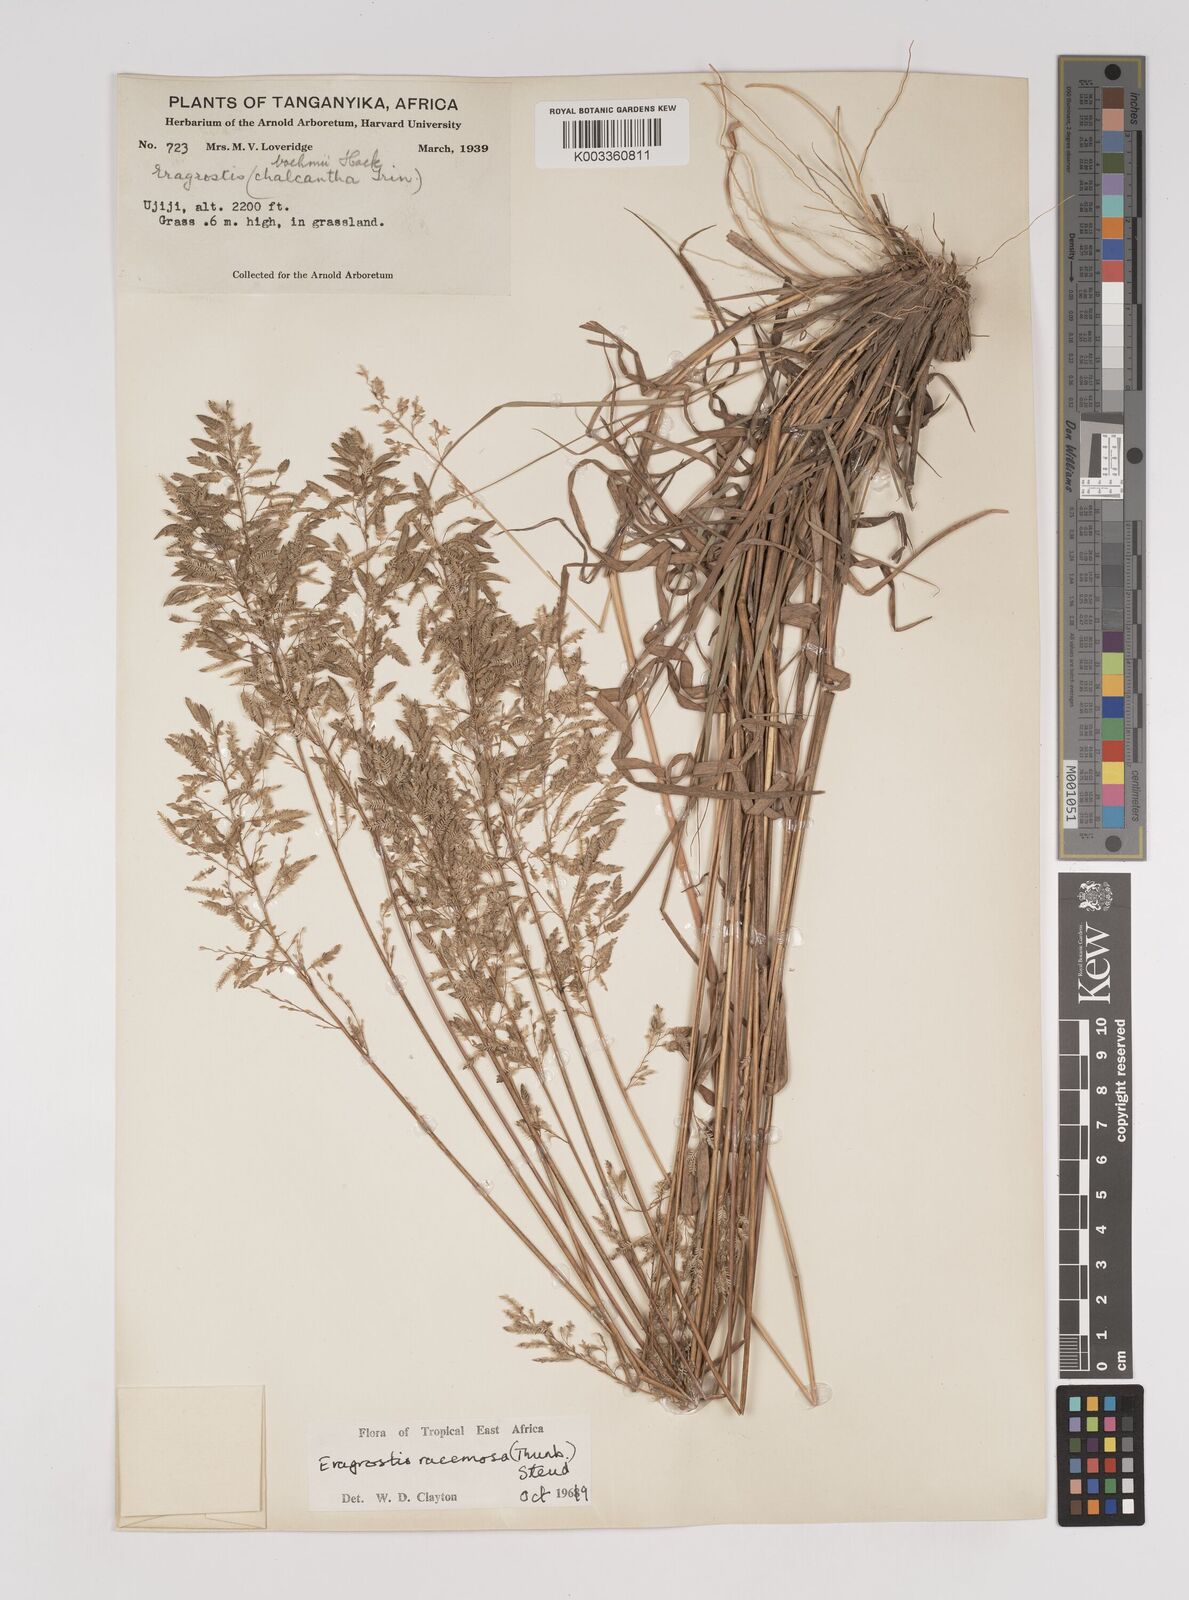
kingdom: Plantae
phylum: Tracheophyta
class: Liliopsida
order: Poales
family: Poaceae
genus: Eragrostis
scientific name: Eragrostis racemosa
